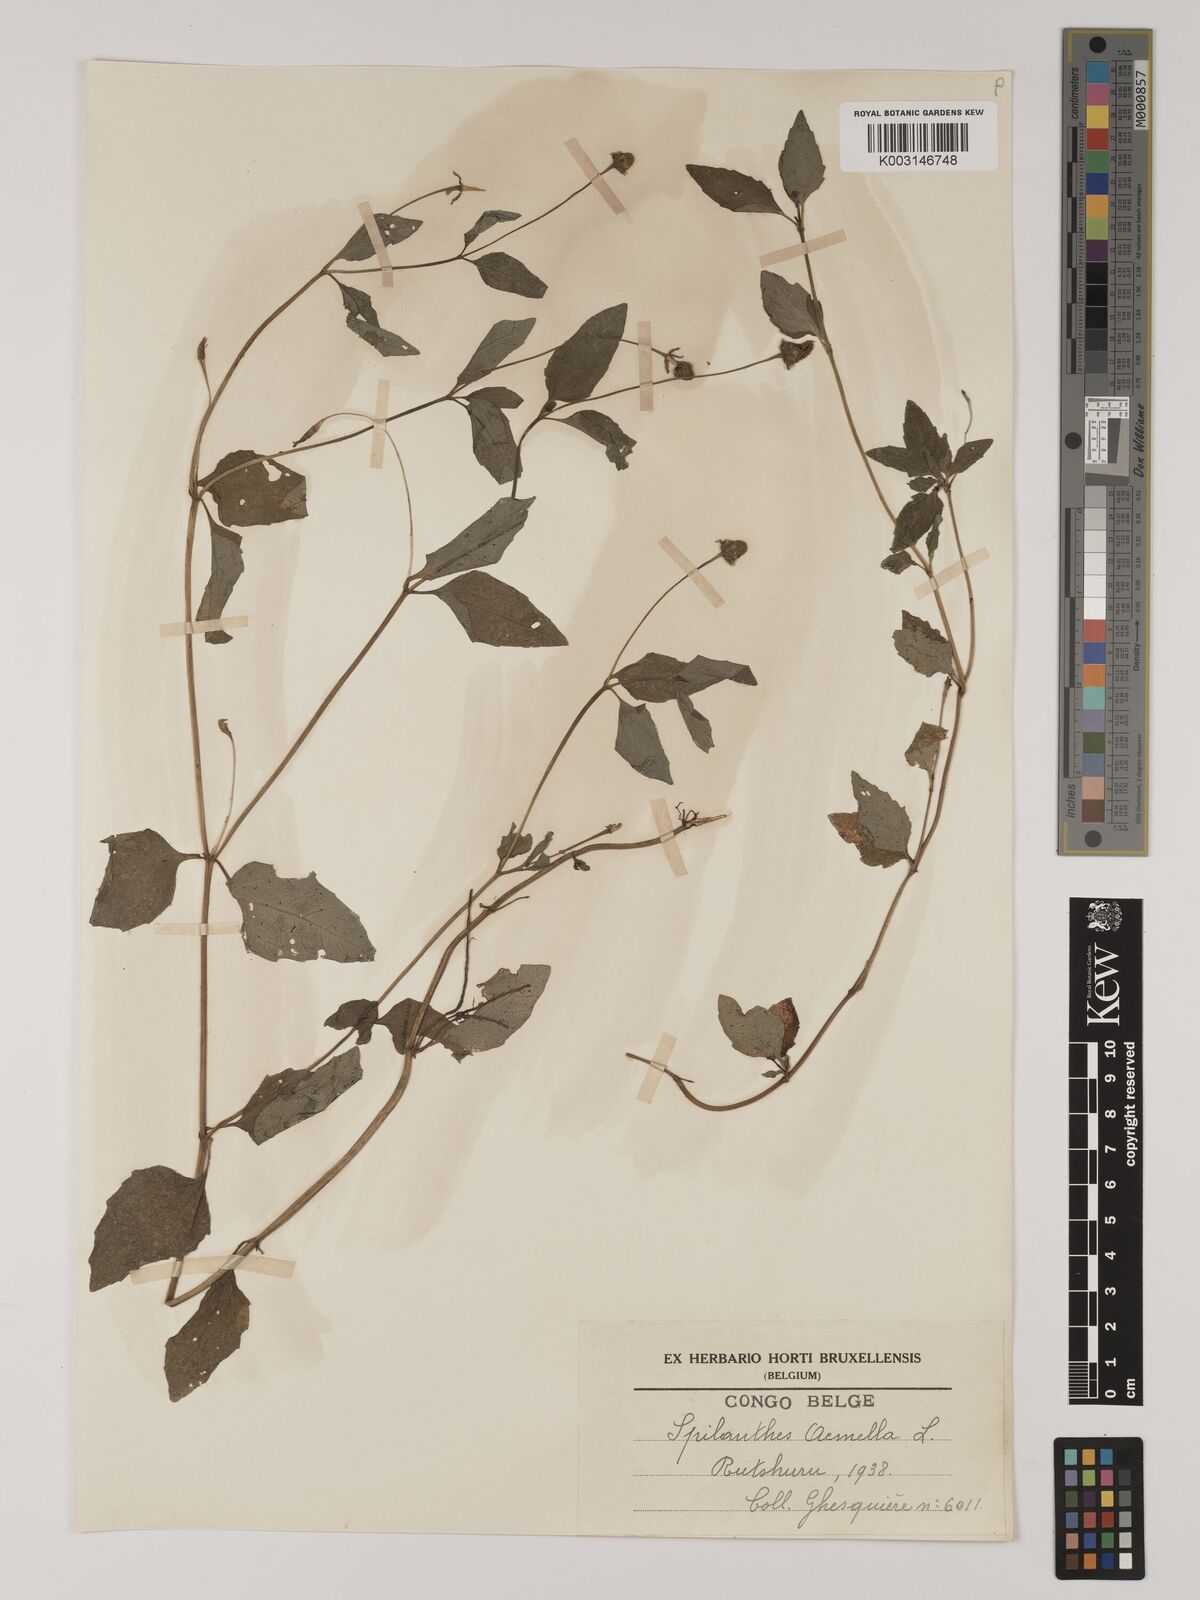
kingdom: Plantae
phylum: Tracheophyta
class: Magnoliopsida
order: Asterales
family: Asteraceae
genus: Blainvillea
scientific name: Blainvillea acmella
